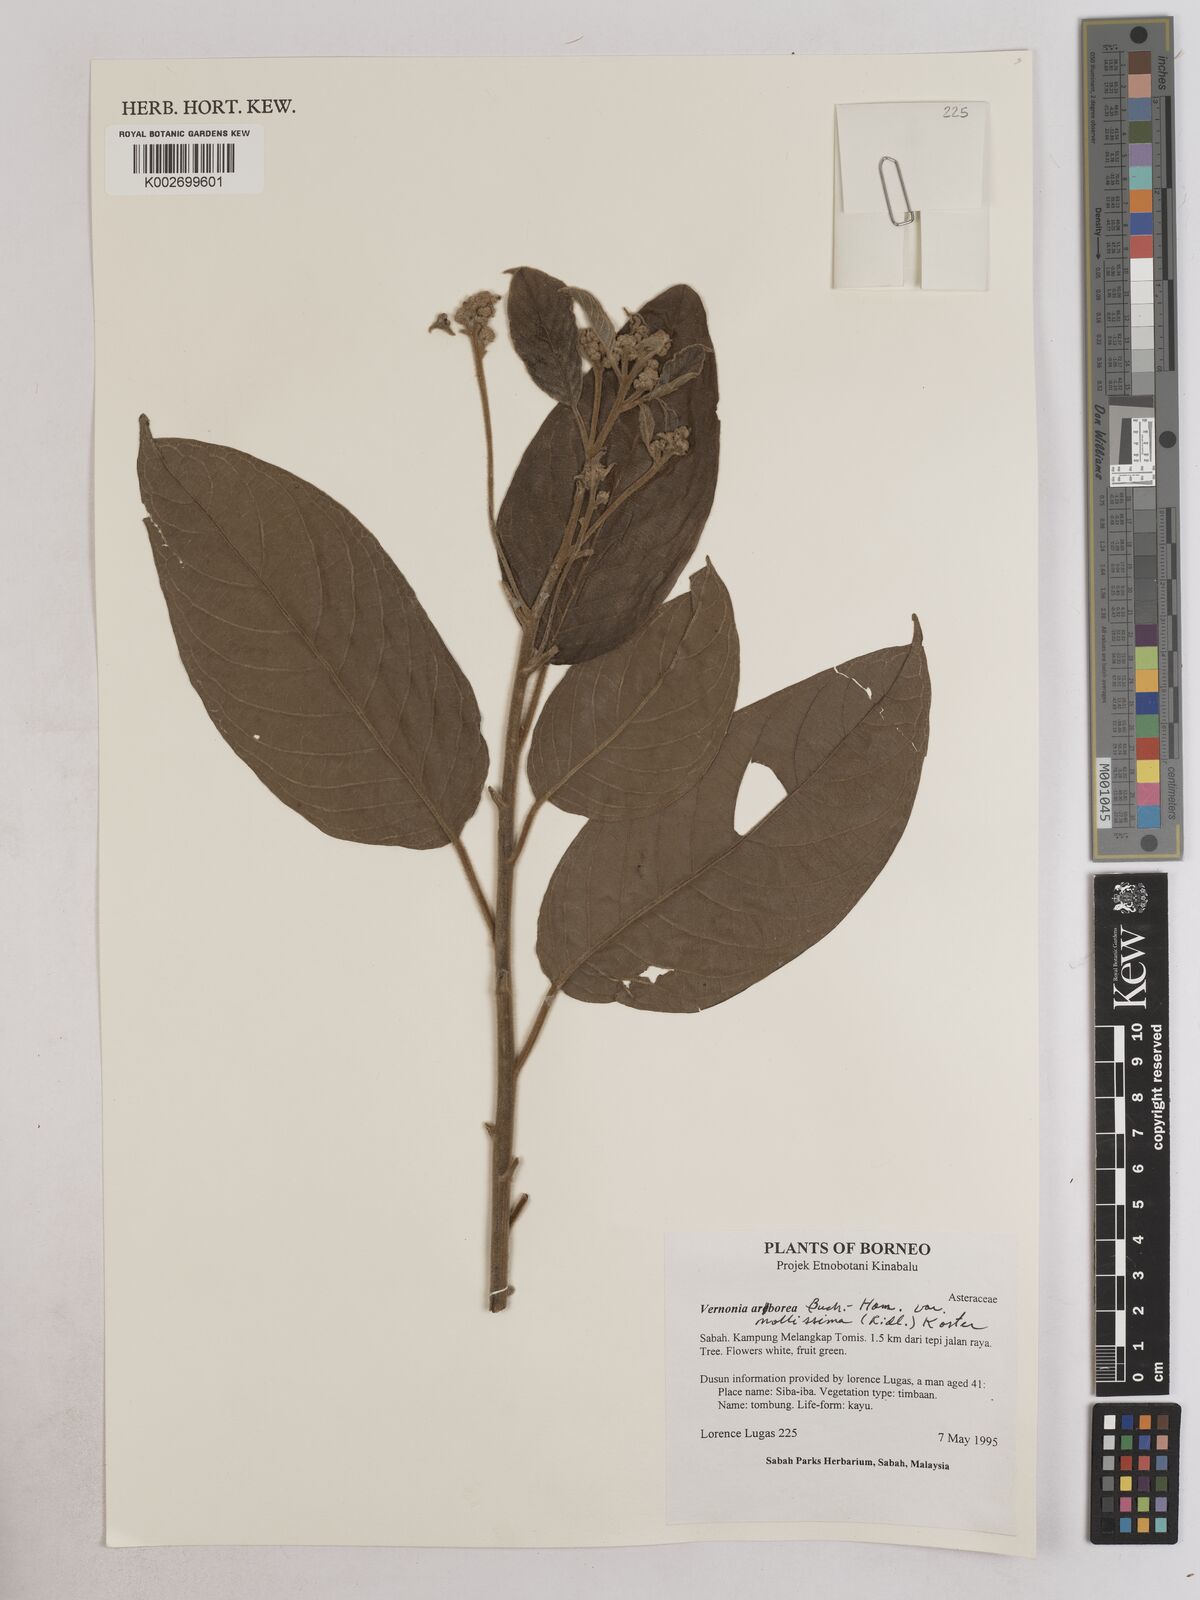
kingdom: Plantae
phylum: Tracheophyta
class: Magnoliopsida
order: Asterales
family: Asteraceae
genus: Strobocalyx
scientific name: Strobocalyx arborea
